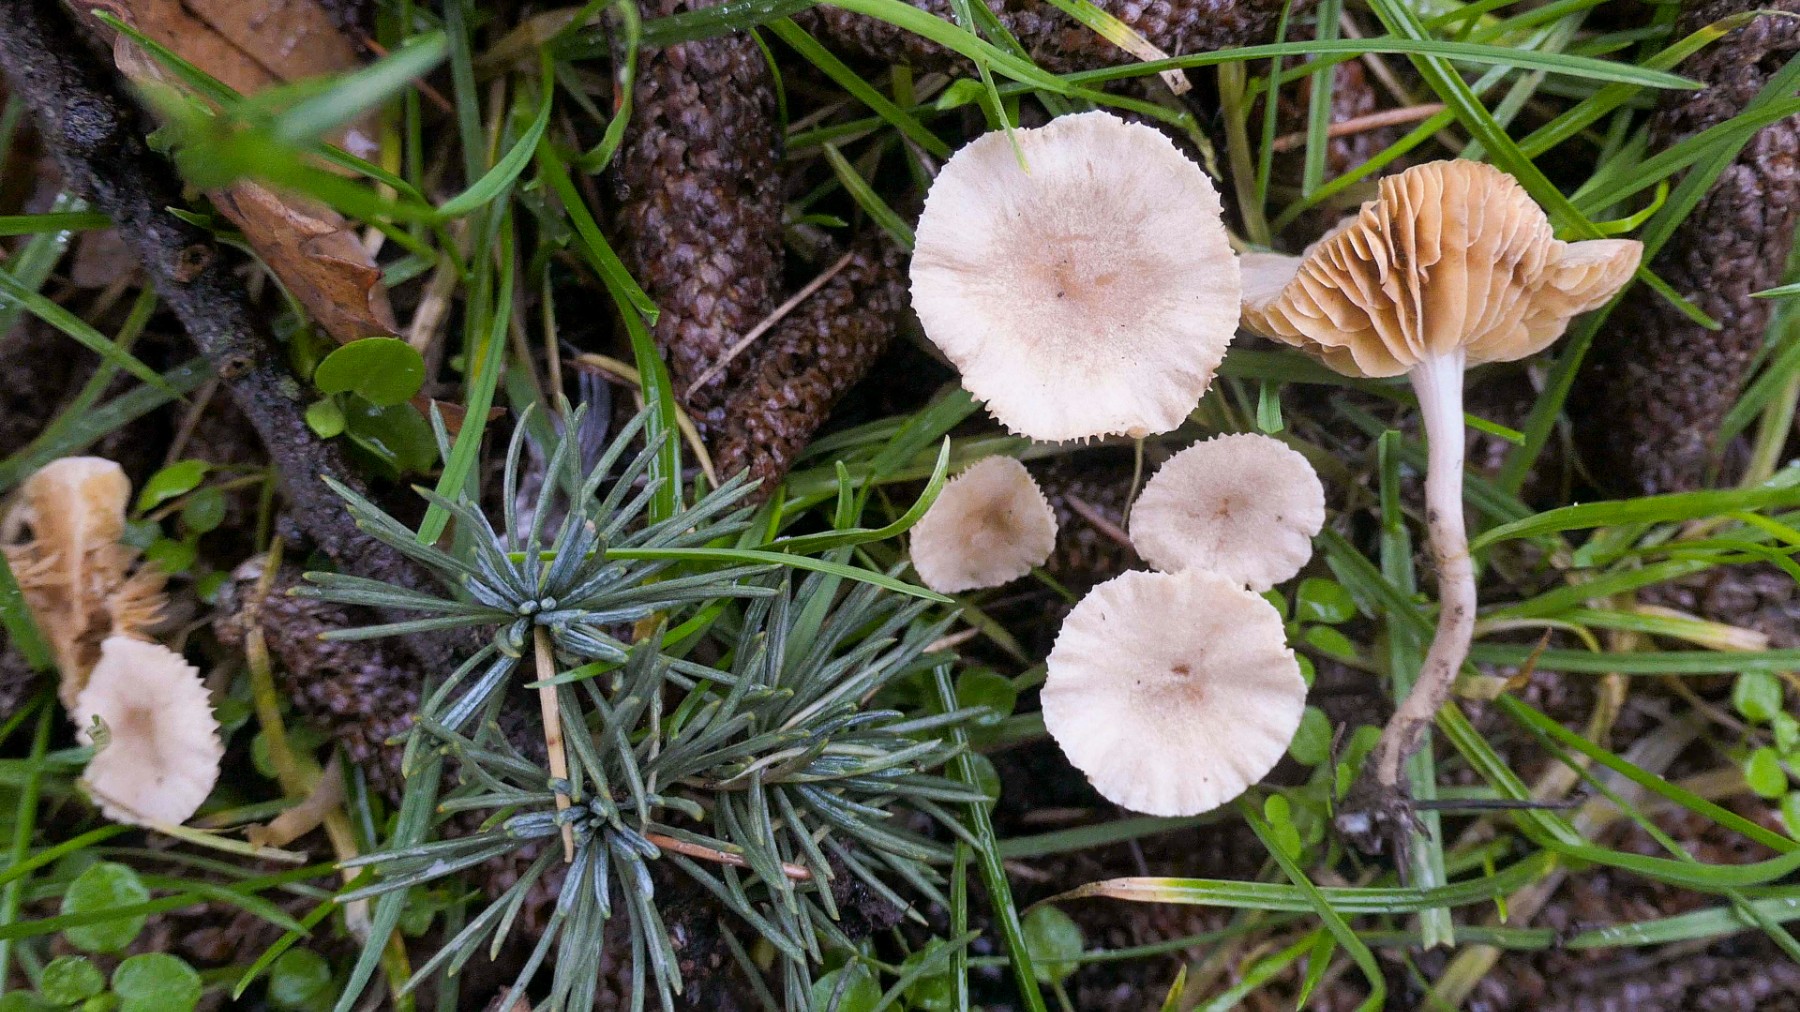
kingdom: Fungi
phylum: Basidiomycota
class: Agaricomycetes
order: Agaricales
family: Tubariaceae
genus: Tubaria
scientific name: Tubaria dispersa
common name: tjørne-fnughat
